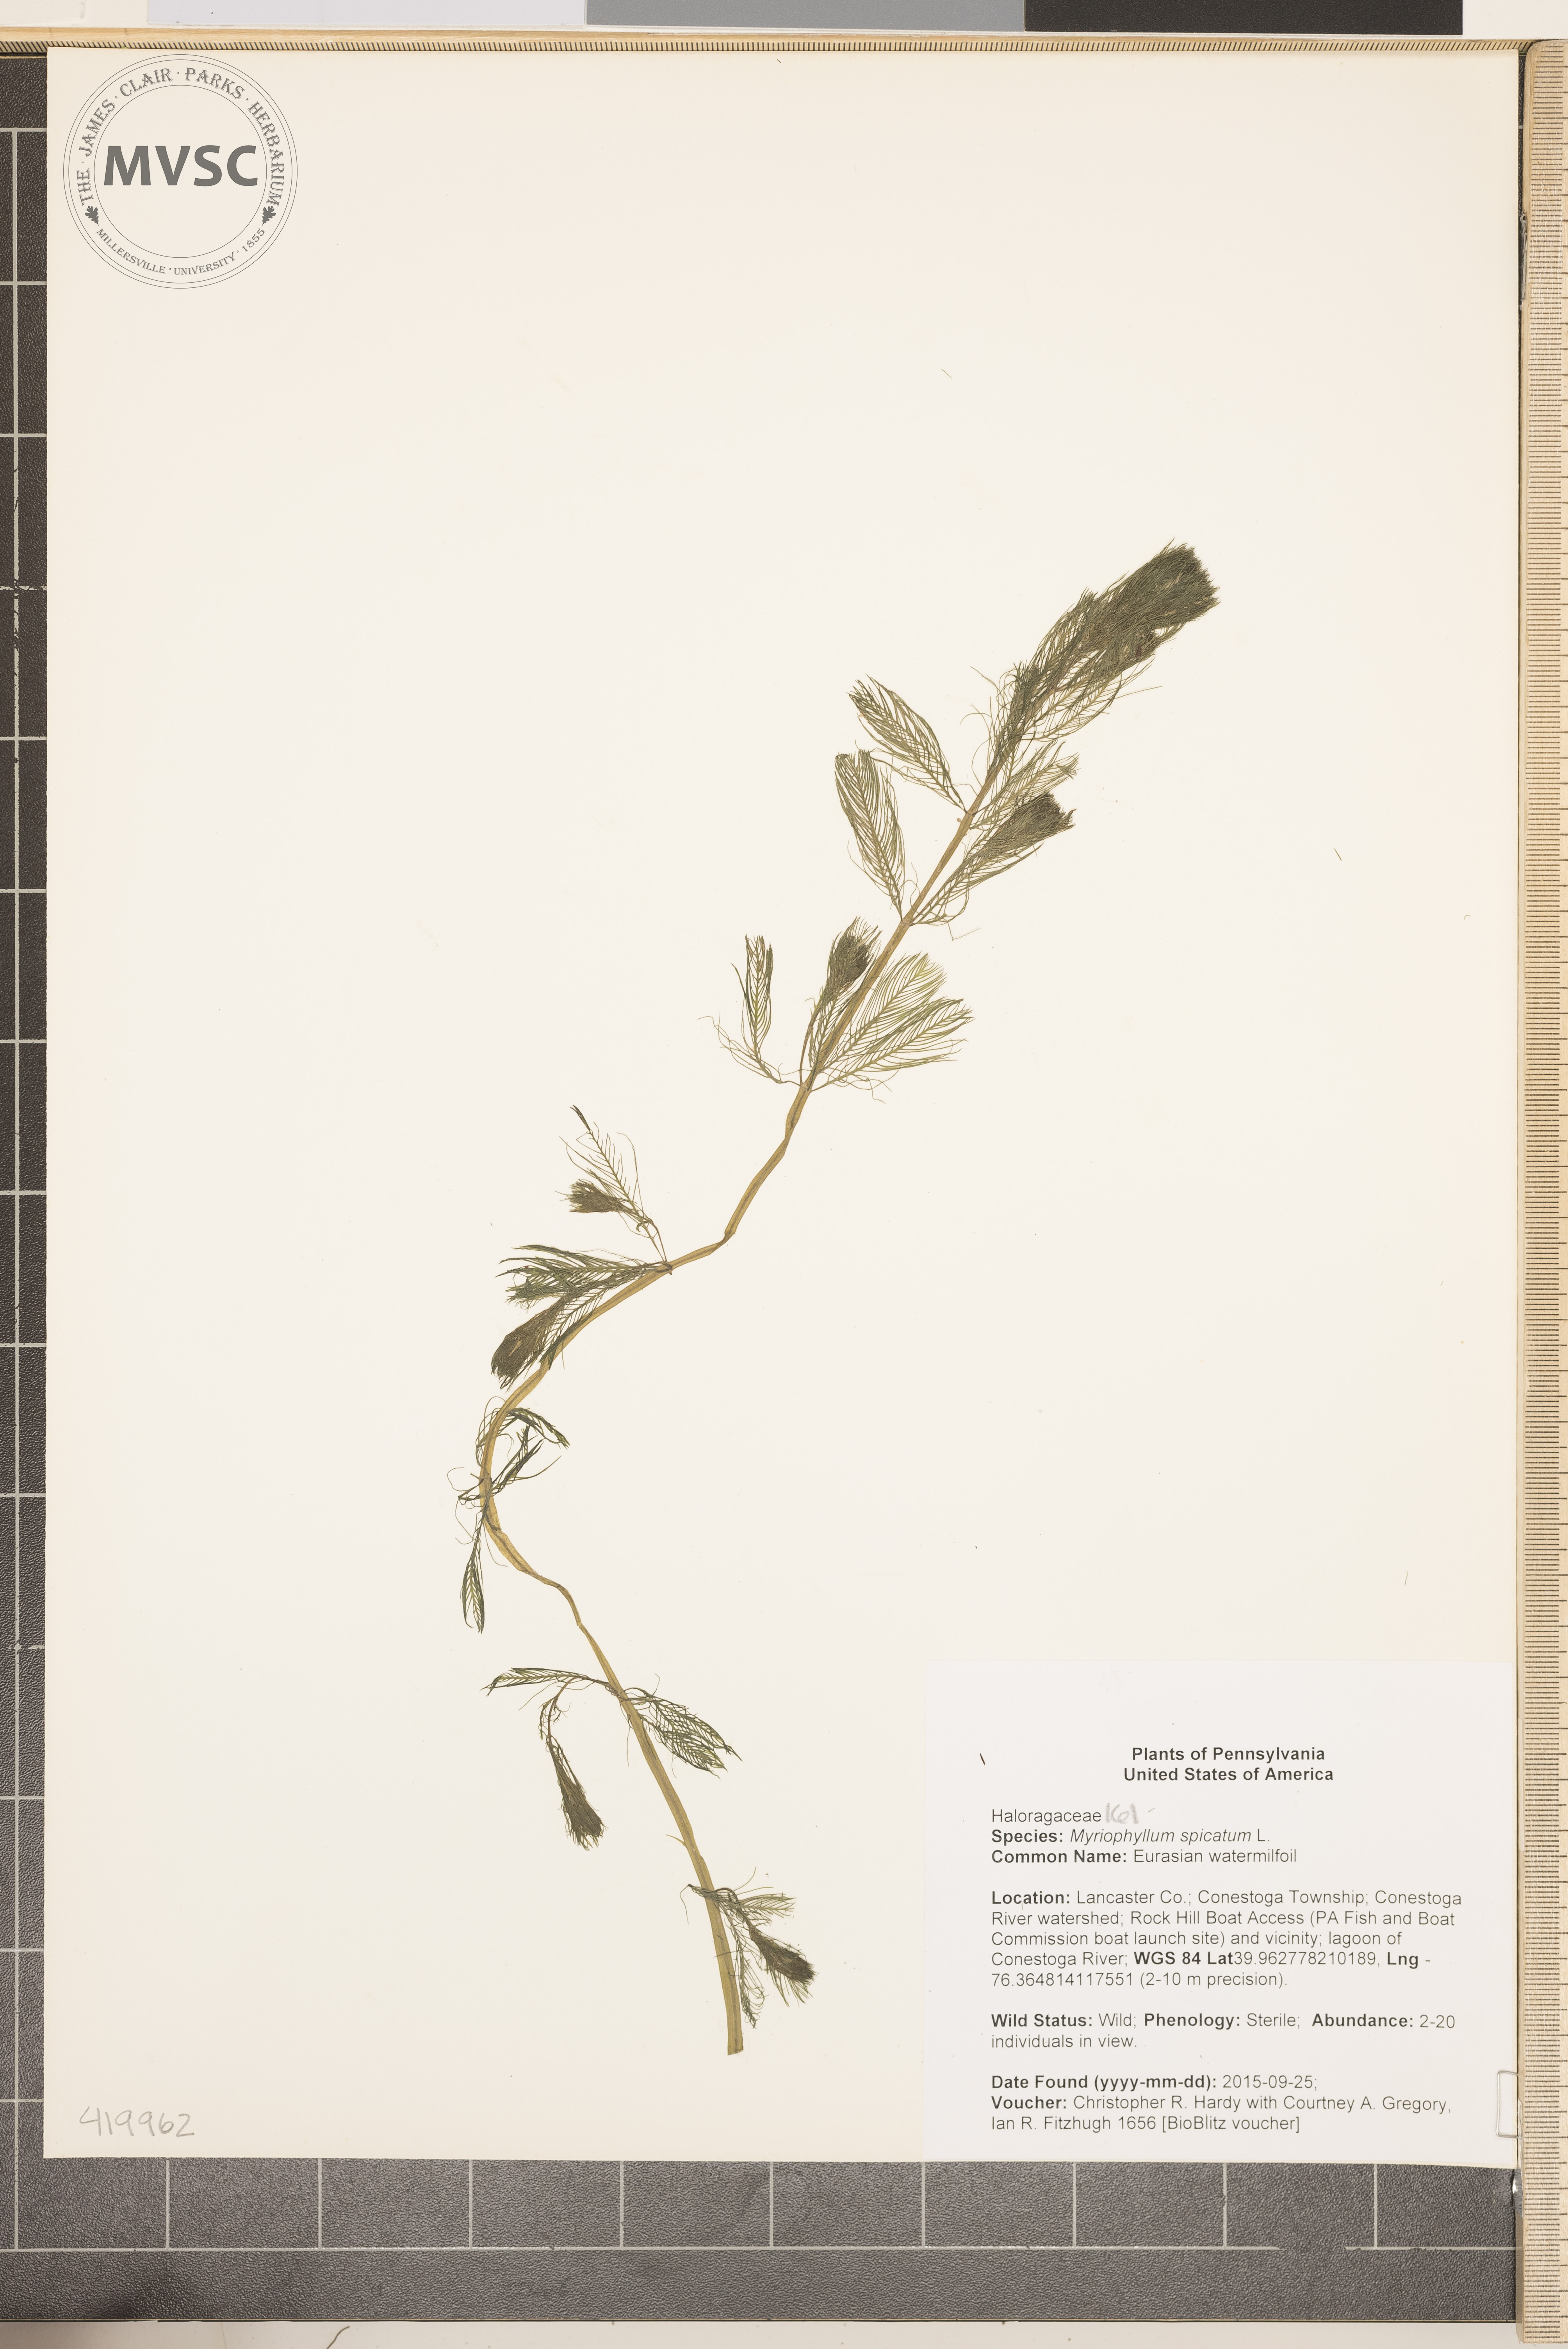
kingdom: Plantae
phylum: Tracheophyta
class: Magnoliopsida
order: Saxifragales
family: Haloragaceae
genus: Myriophyllum
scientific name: Myriophyllum spicatum
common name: Eurasian watermilfoil
